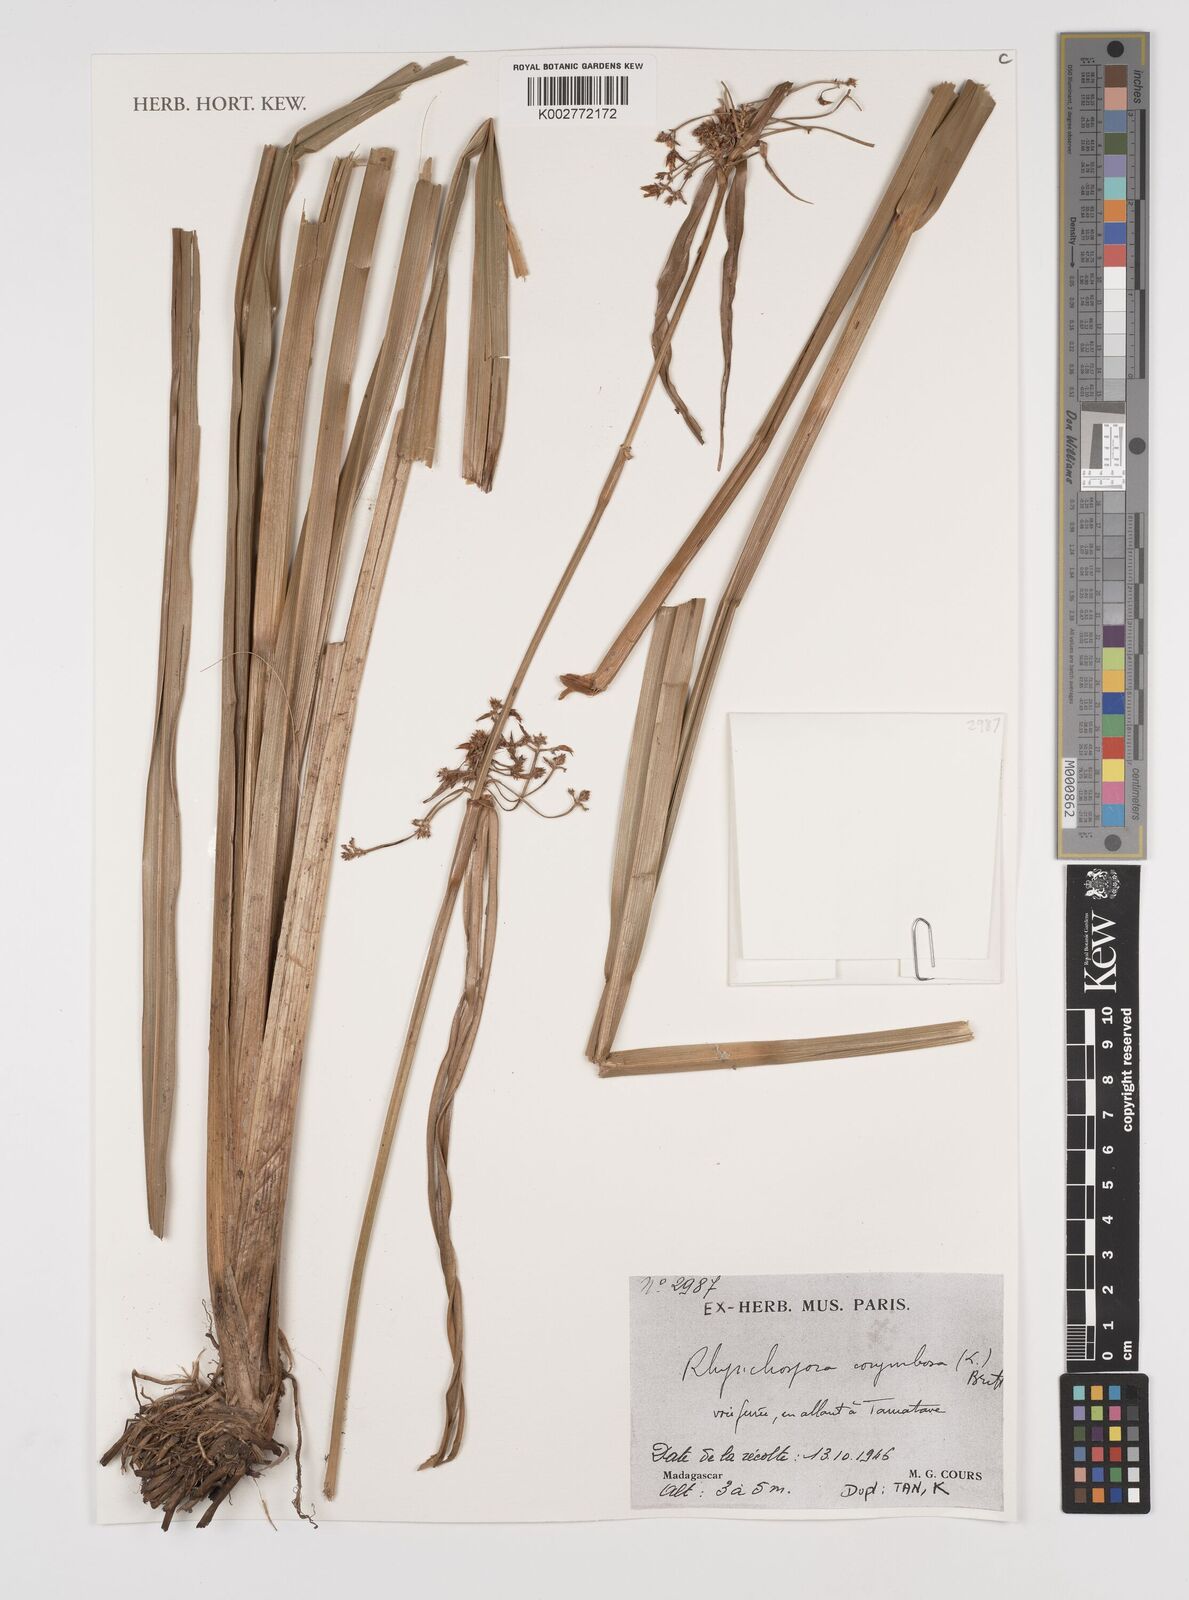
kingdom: Plantae
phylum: Tracheophyta
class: Liliopsida
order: Poales
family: Cyperaceae
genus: Rhynchospora
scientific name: Rhynchospora corymbosa
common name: Golden beak sedge
